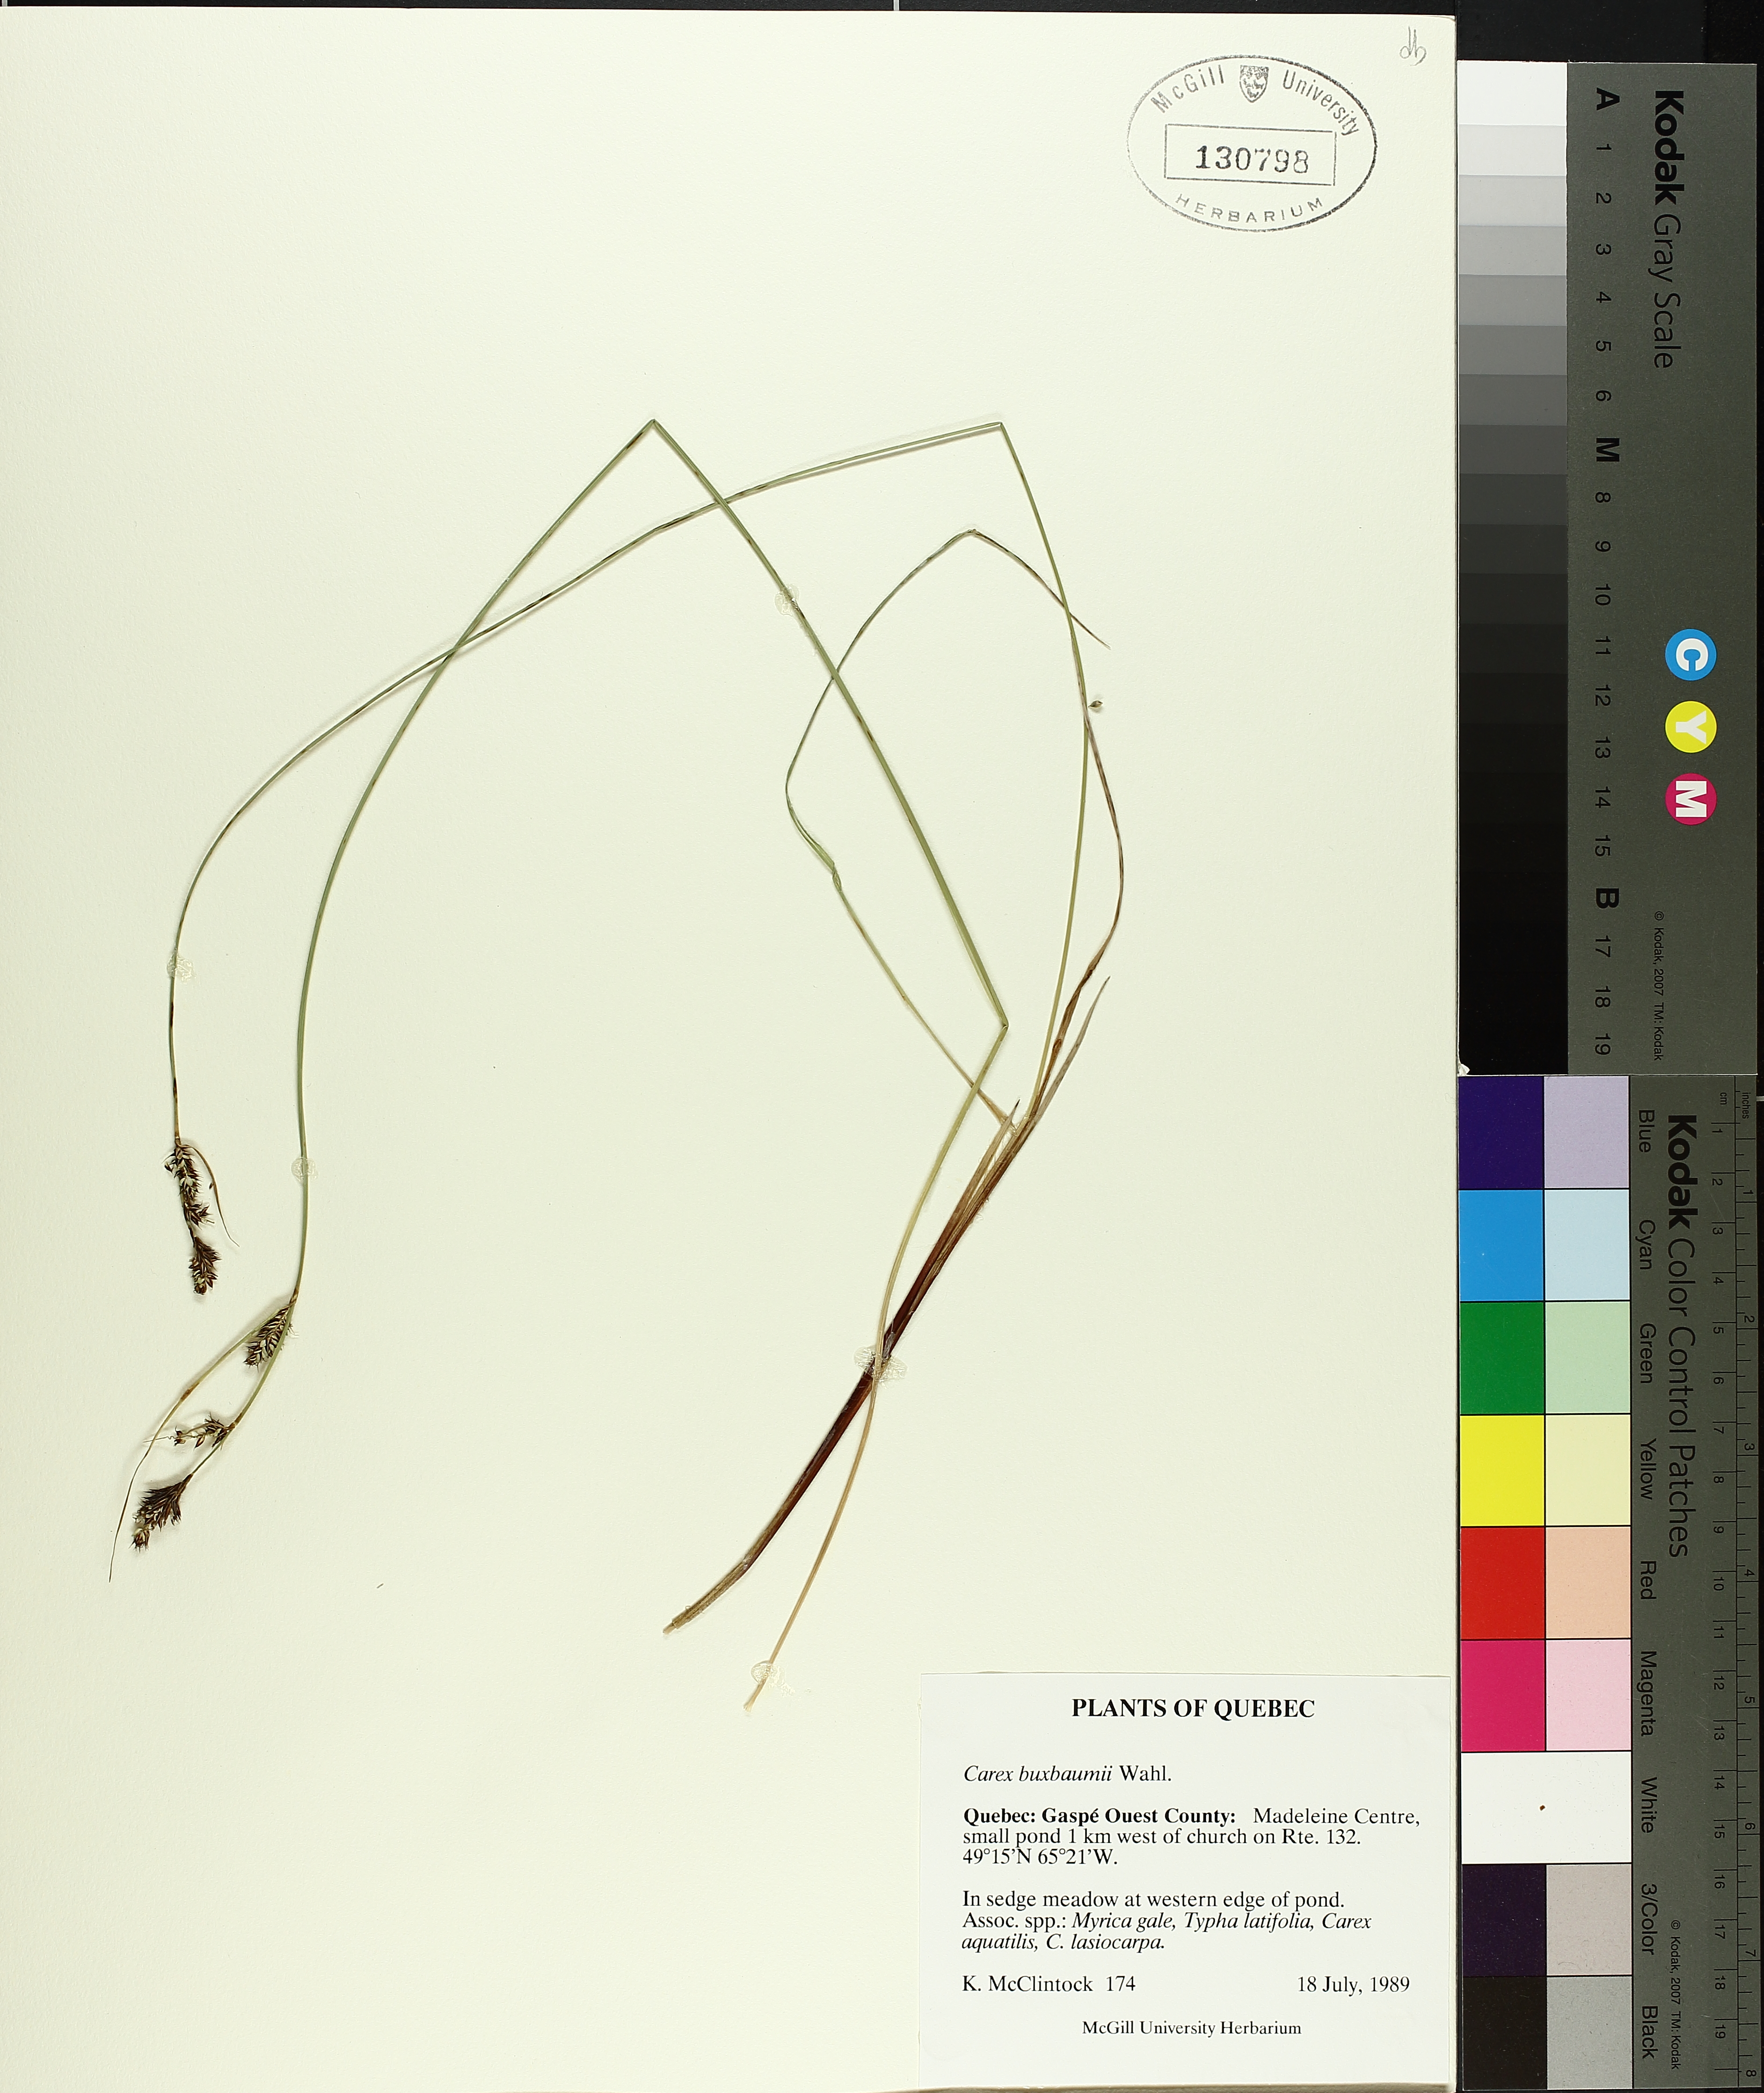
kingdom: Plantae
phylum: Tracheophyta
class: Liliopsida
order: Poales
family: Cyperaceae
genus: Carex
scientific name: Carex buxbaumii
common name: Club sedge
